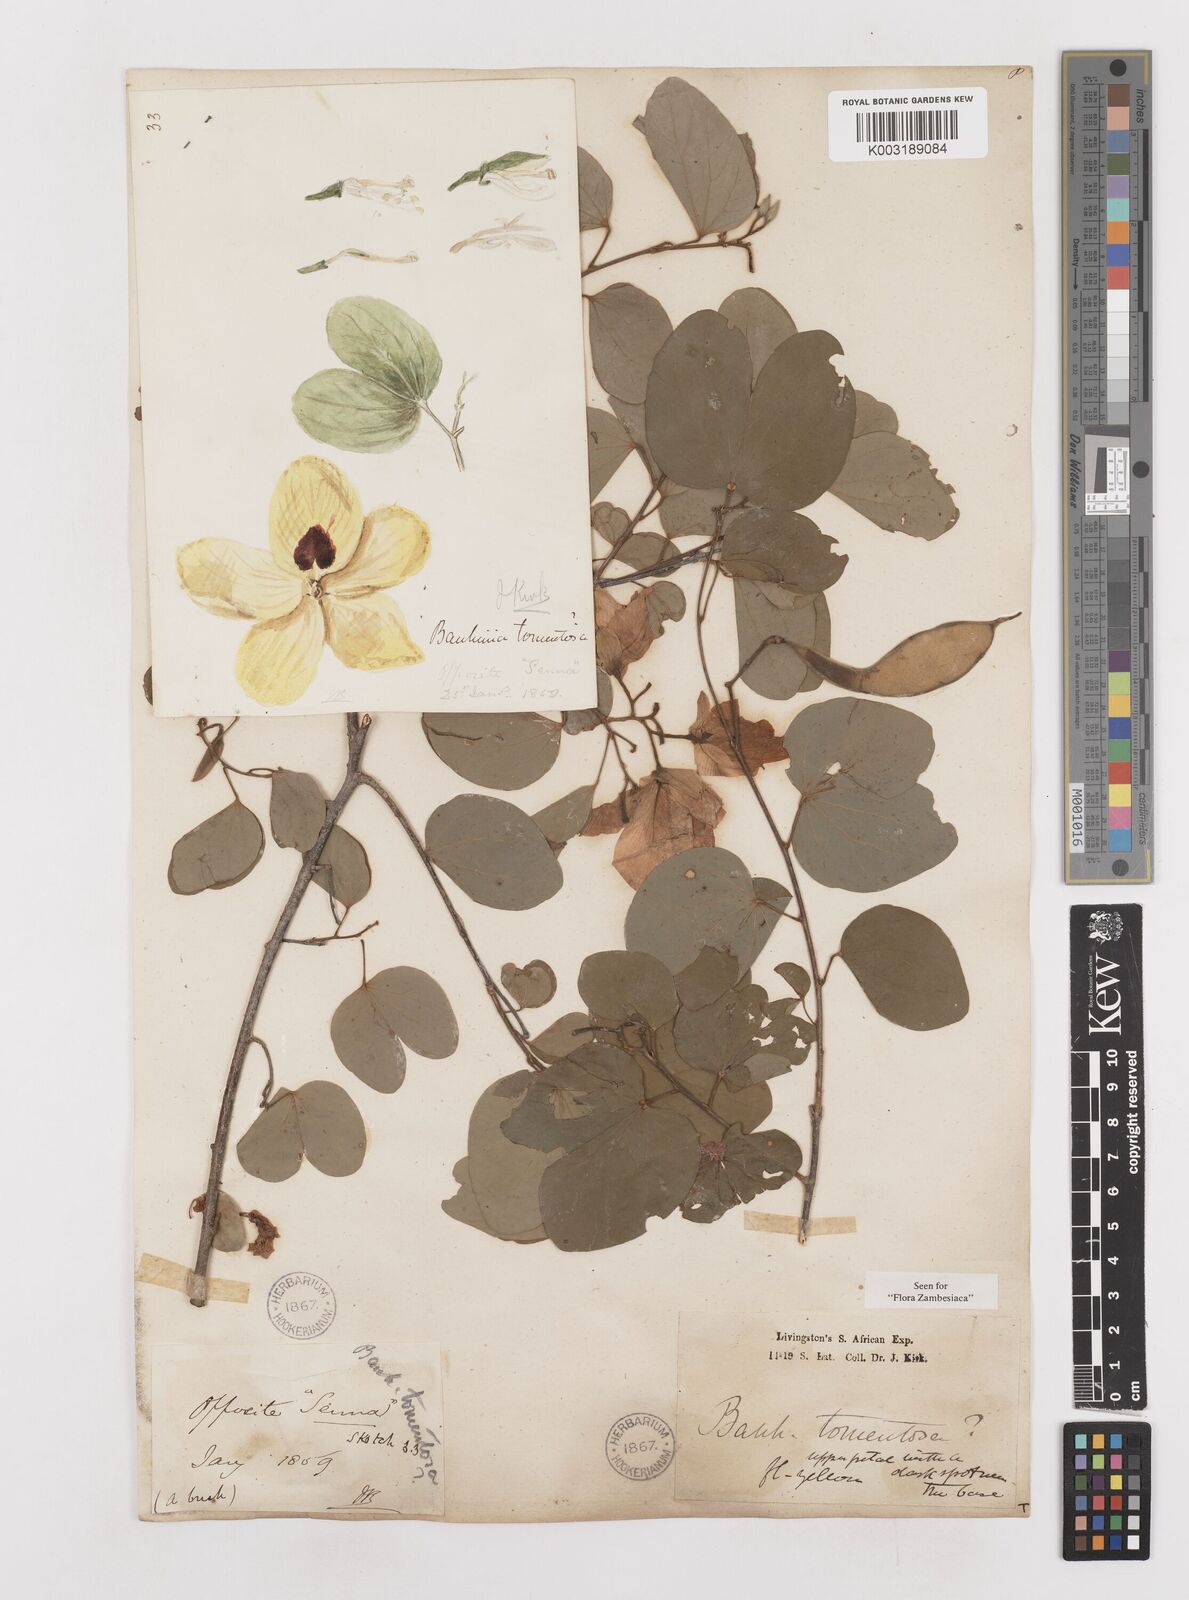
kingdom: Plantae
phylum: Tracheophyta
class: Magnoliopsida
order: Fabales
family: Fabaceae
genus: Bauhinia
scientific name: Bauhinia tomentosa
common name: Bell bauhinia
